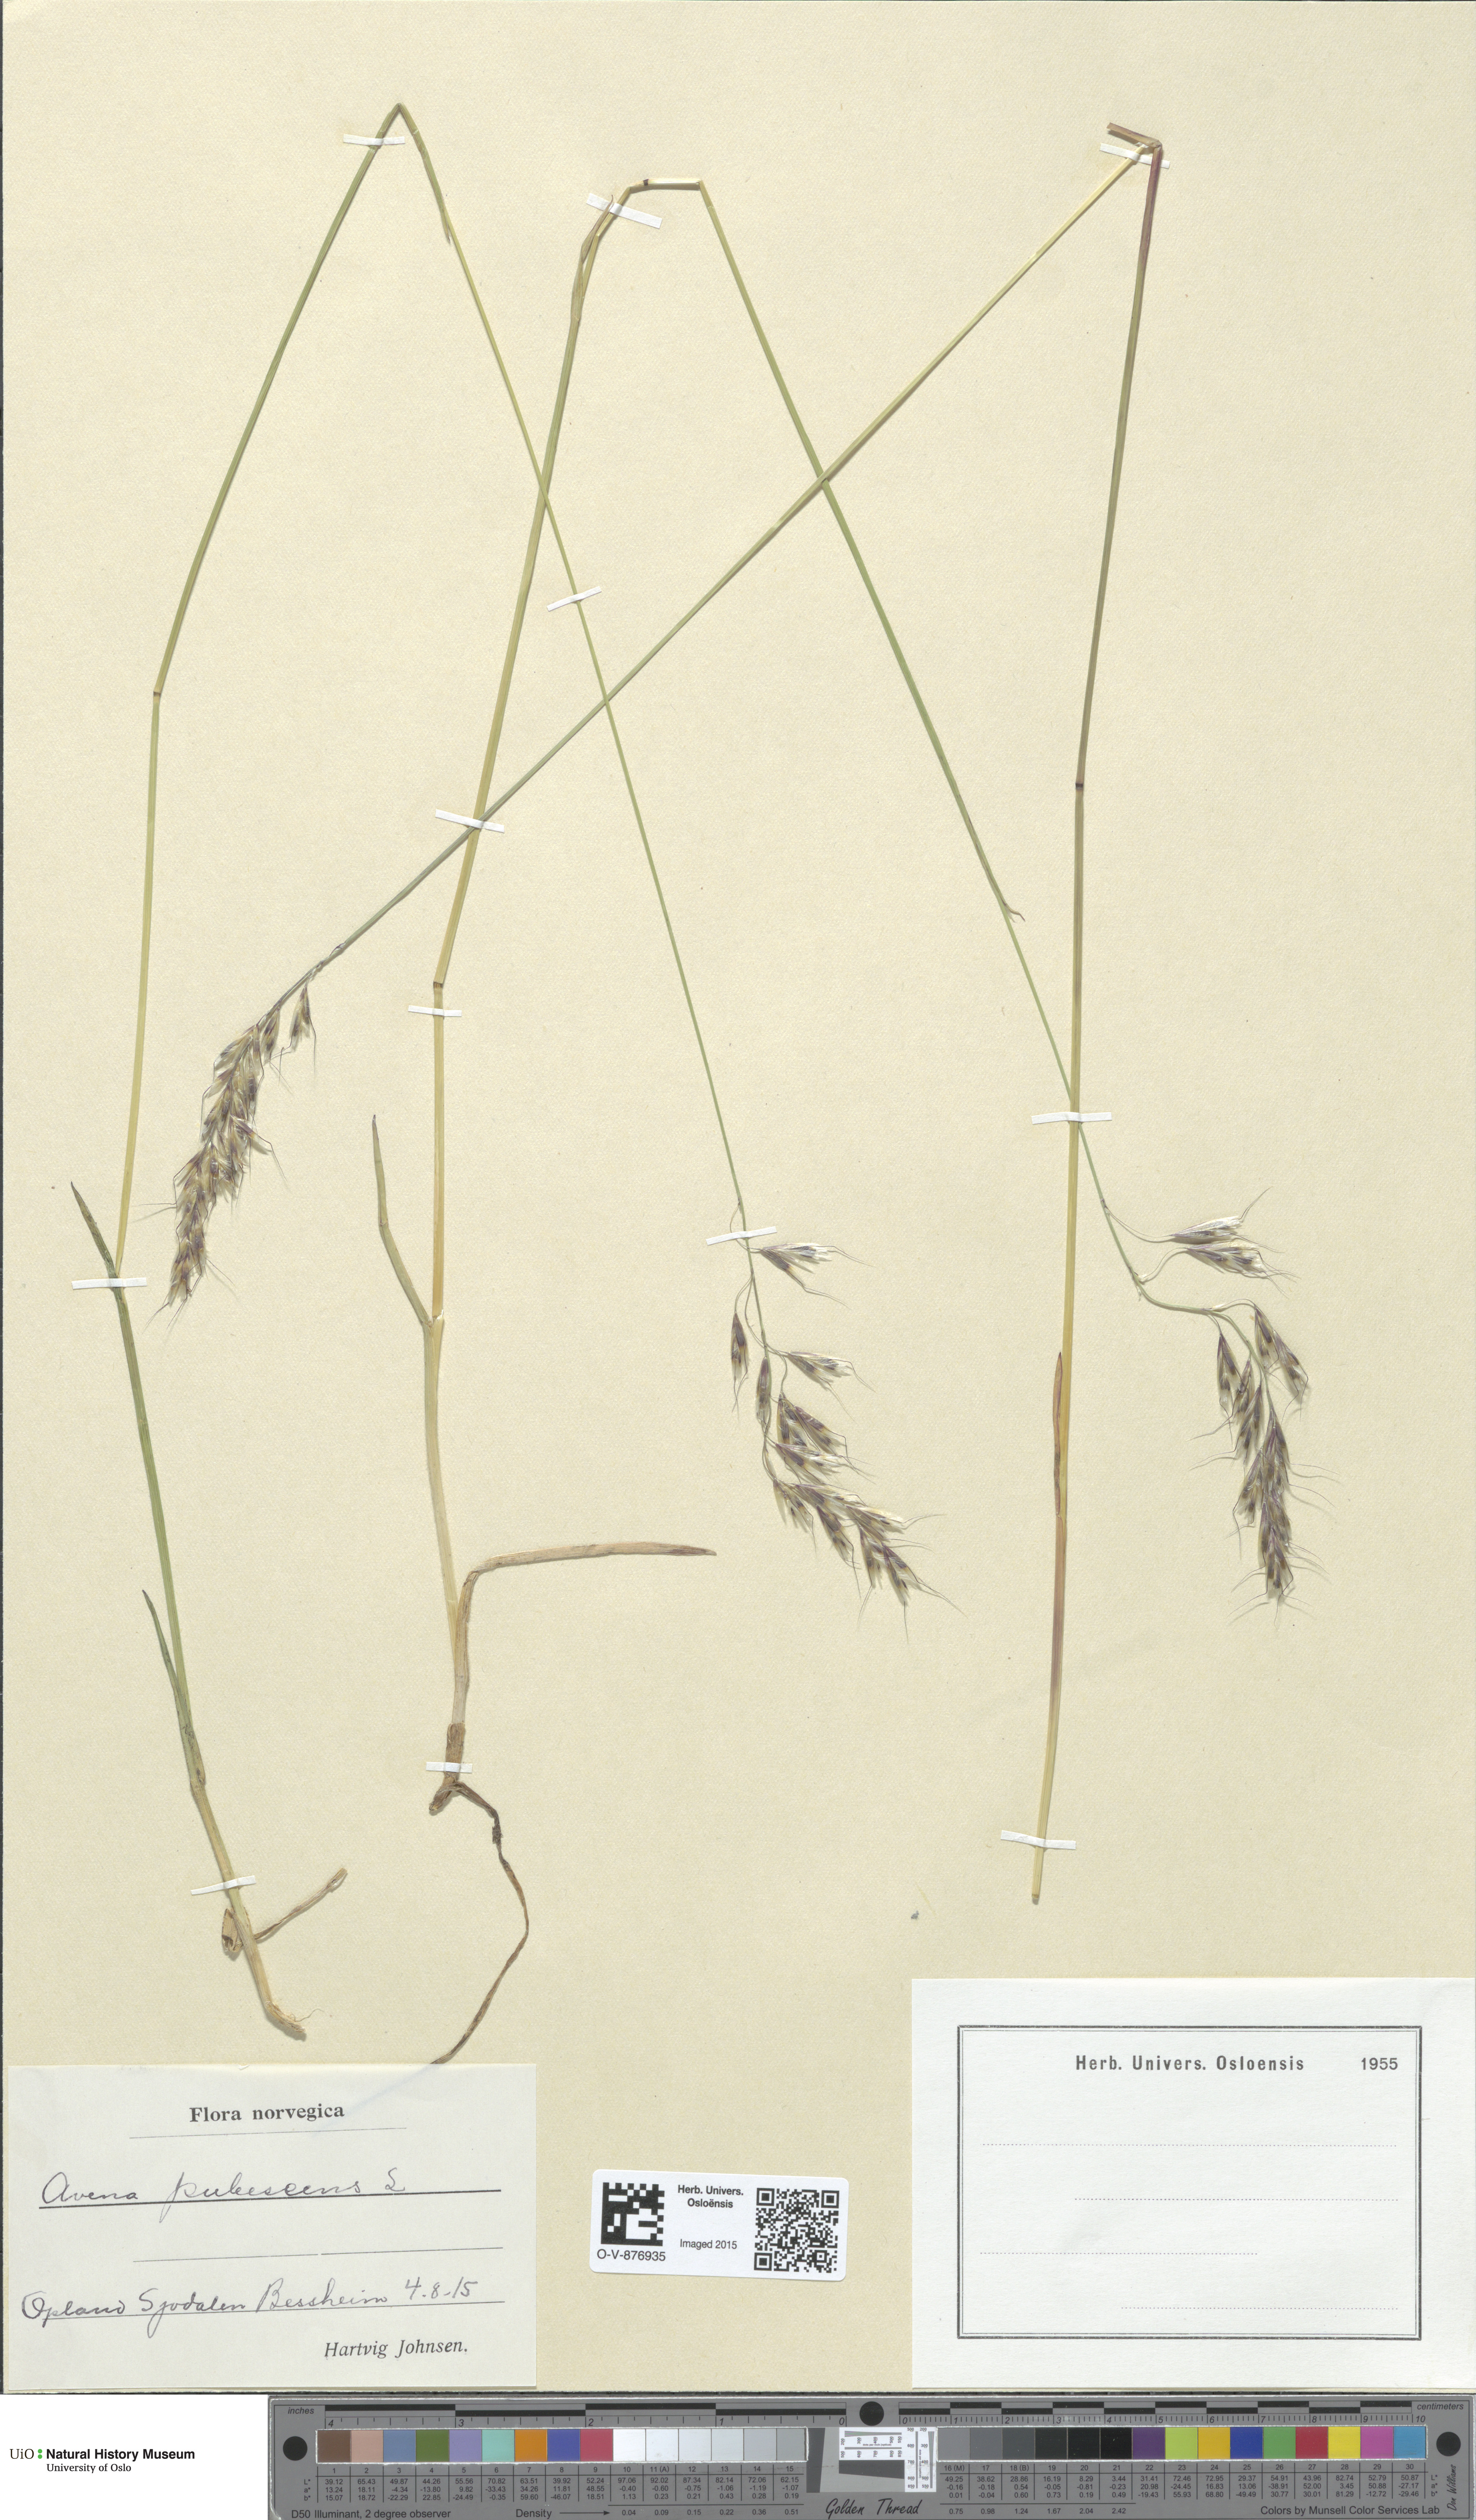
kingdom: Plantae
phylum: Tracheophyta
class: Liliopsida
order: Poales
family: Poaceae
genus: Avenula
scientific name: Avenula pubescens
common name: Downy alpine oatgrass
